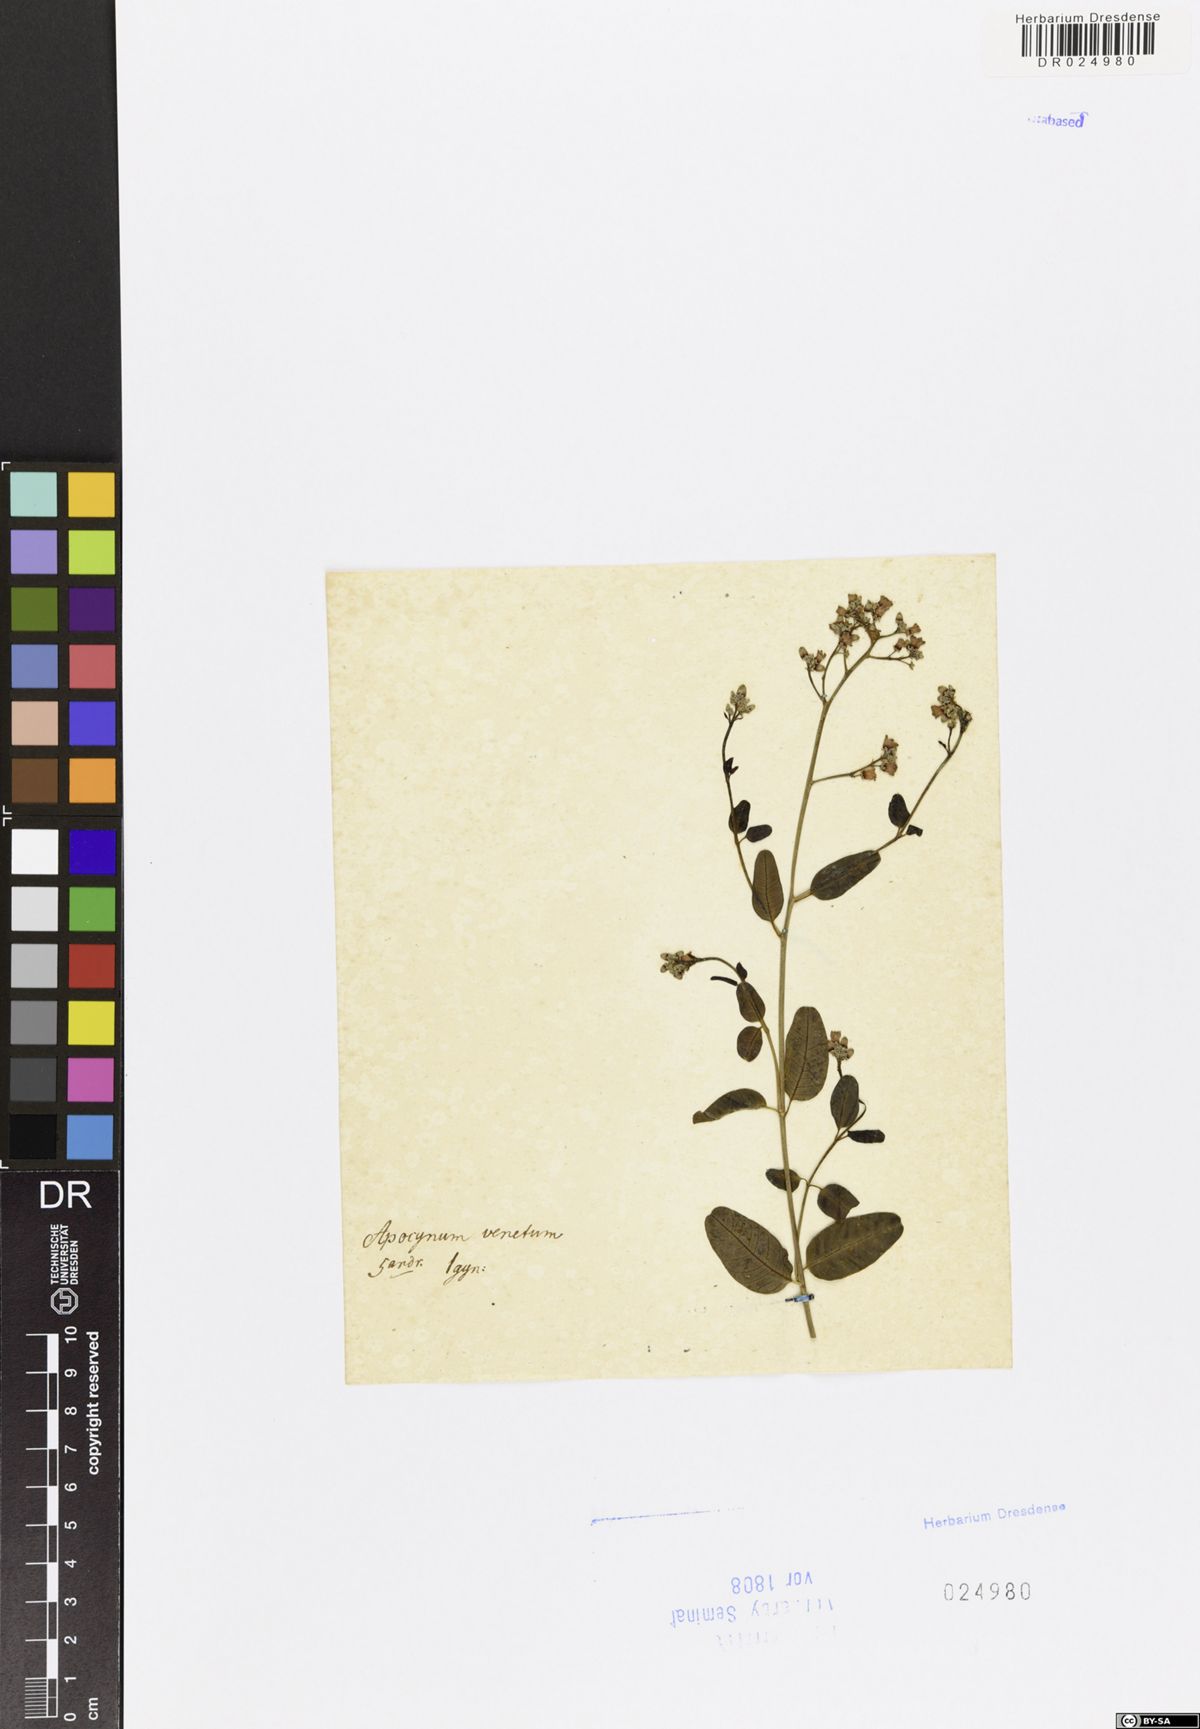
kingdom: Plantae
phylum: Tracheophyta
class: Magnoliopsida
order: Gentianales
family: Apocynaceae
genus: Poacynum
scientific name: Poacynum venetum
